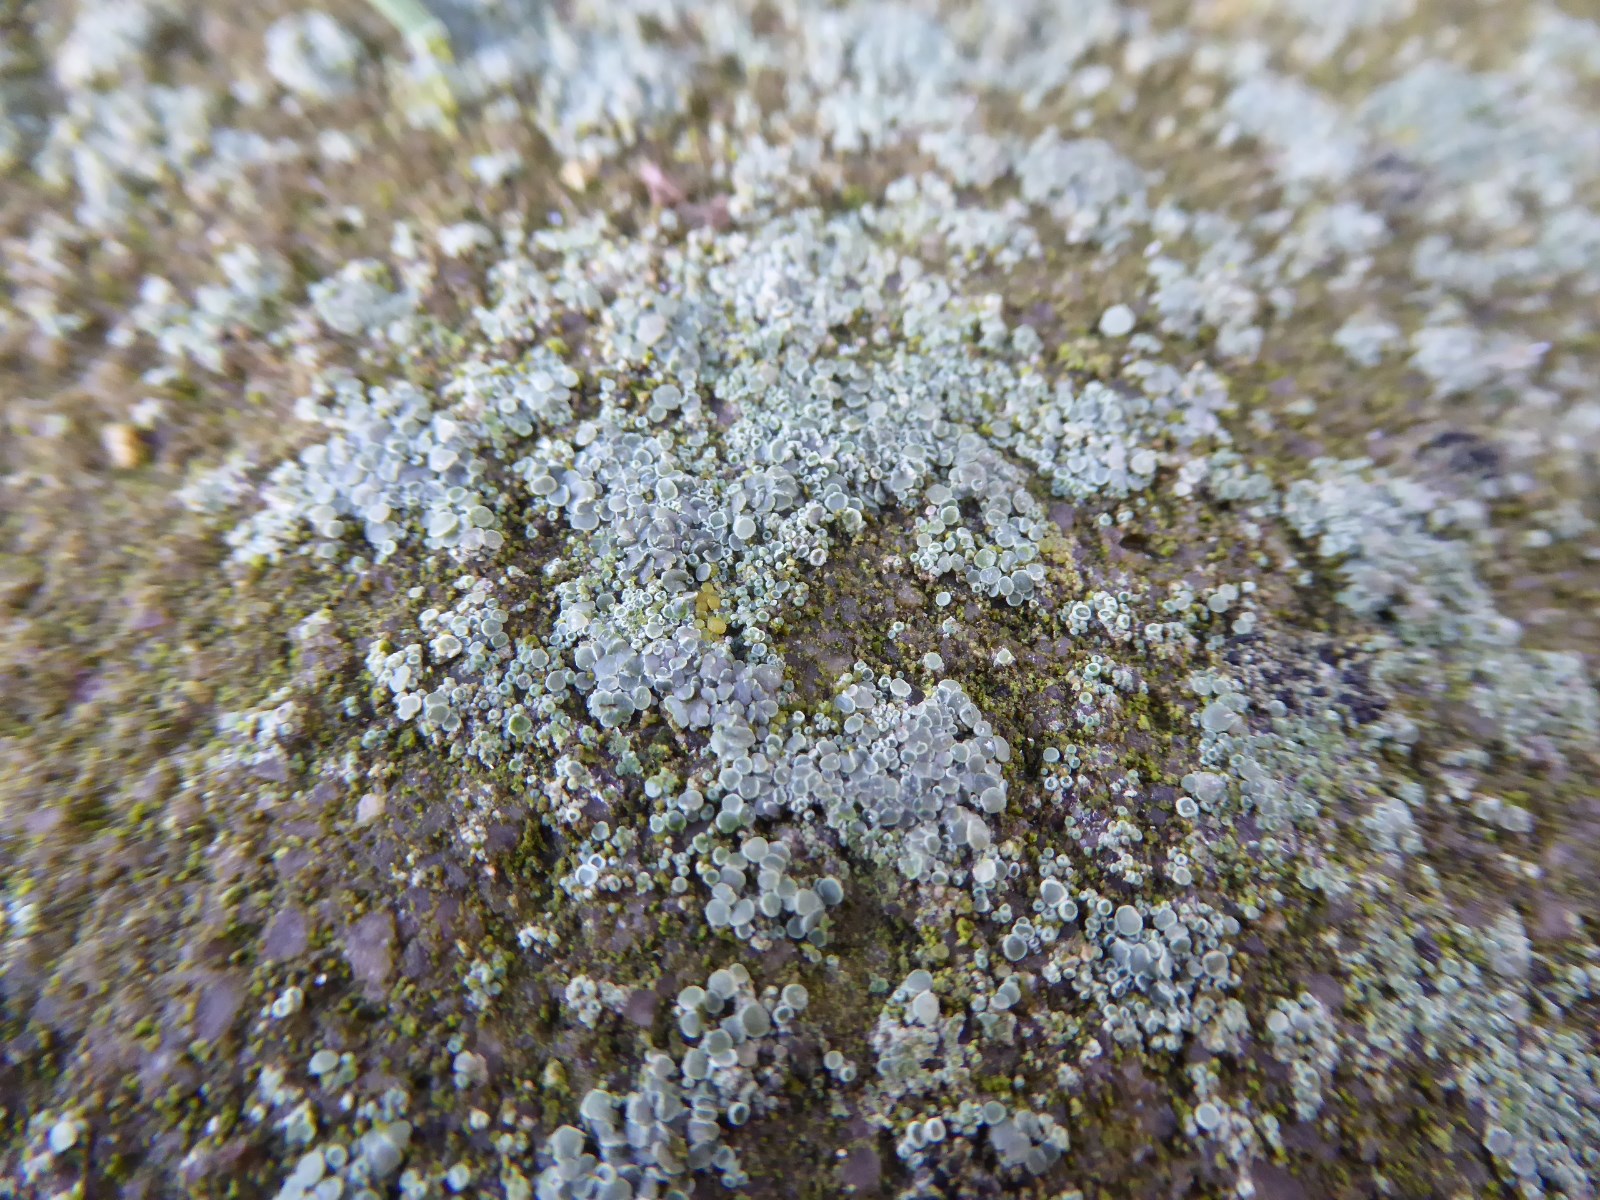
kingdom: Fungi
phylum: Ascomycota
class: Lecanoromycetes
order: Lecanorales
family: Lecanoraceae
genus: Polyozosia
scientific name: Polyozosia albescens
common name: cement-kantskivelav
